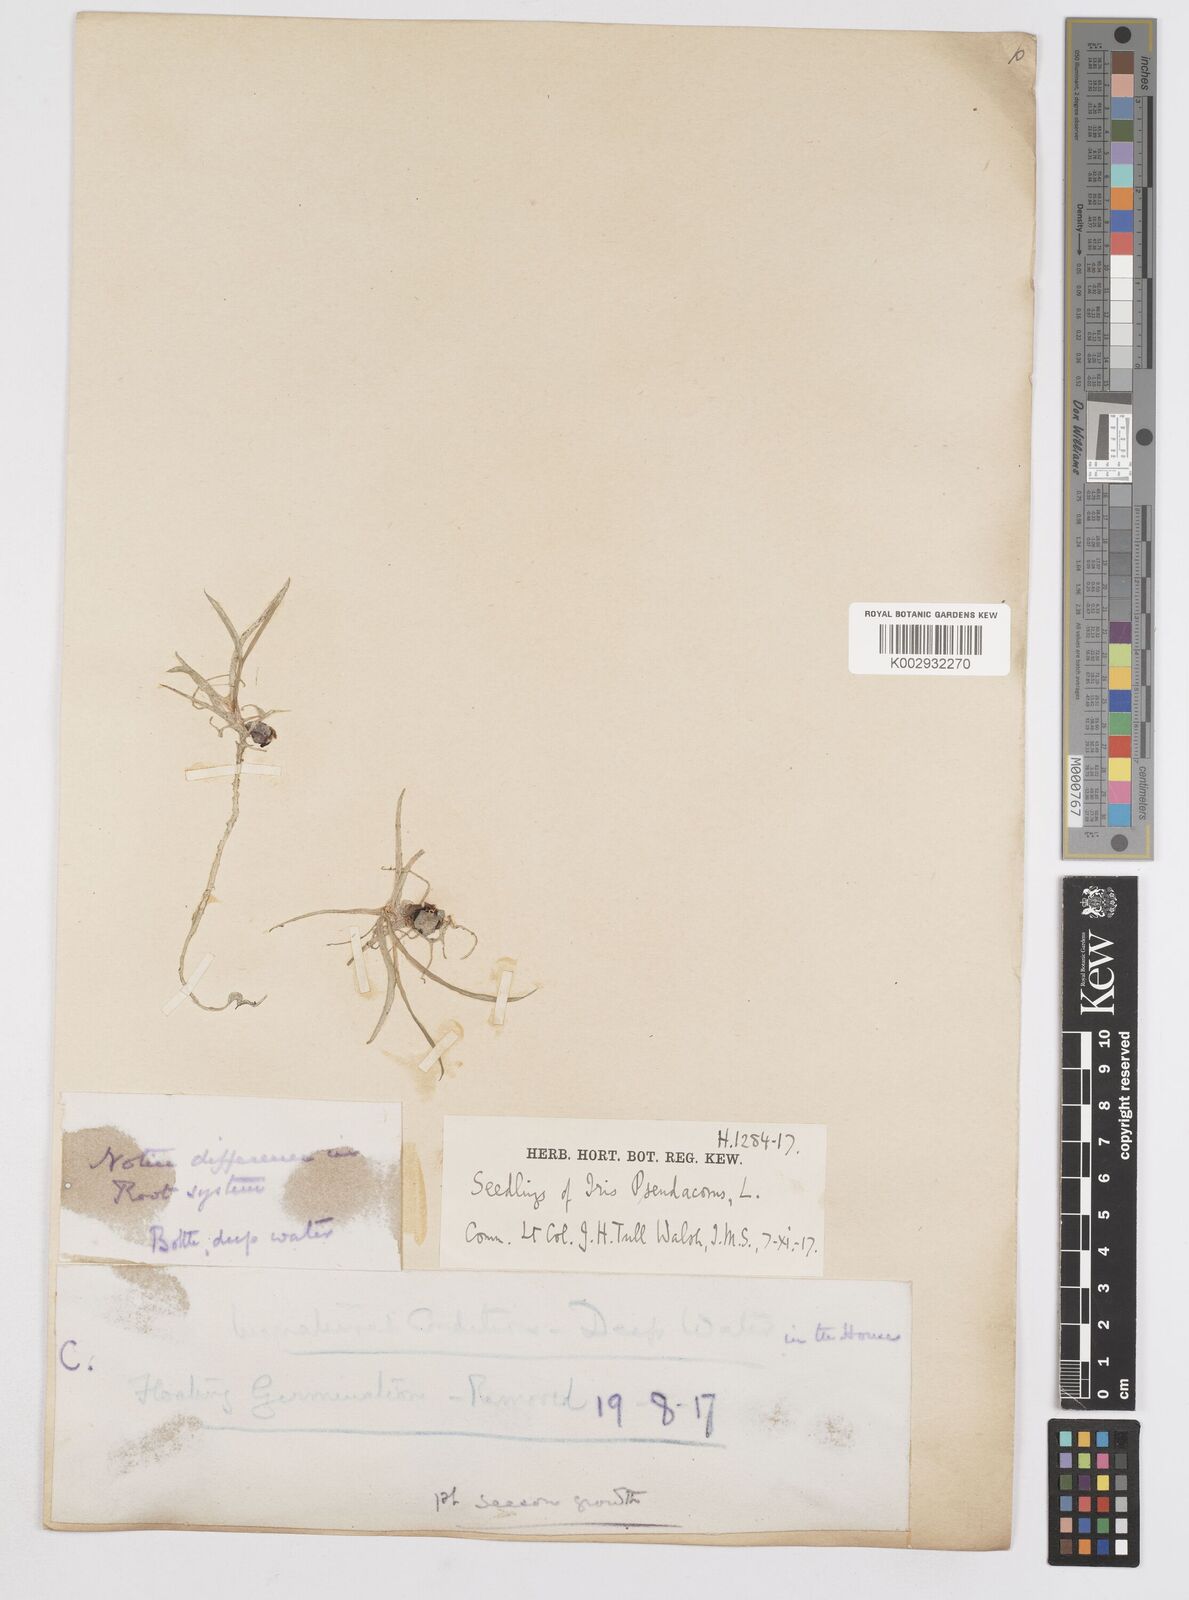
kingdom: Plantae
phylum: Tracheophyta
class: Liliopsida
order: Asparagales
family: Iridaceae
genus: Iris
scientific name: Iris pseudacorus
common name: Yellow flag
